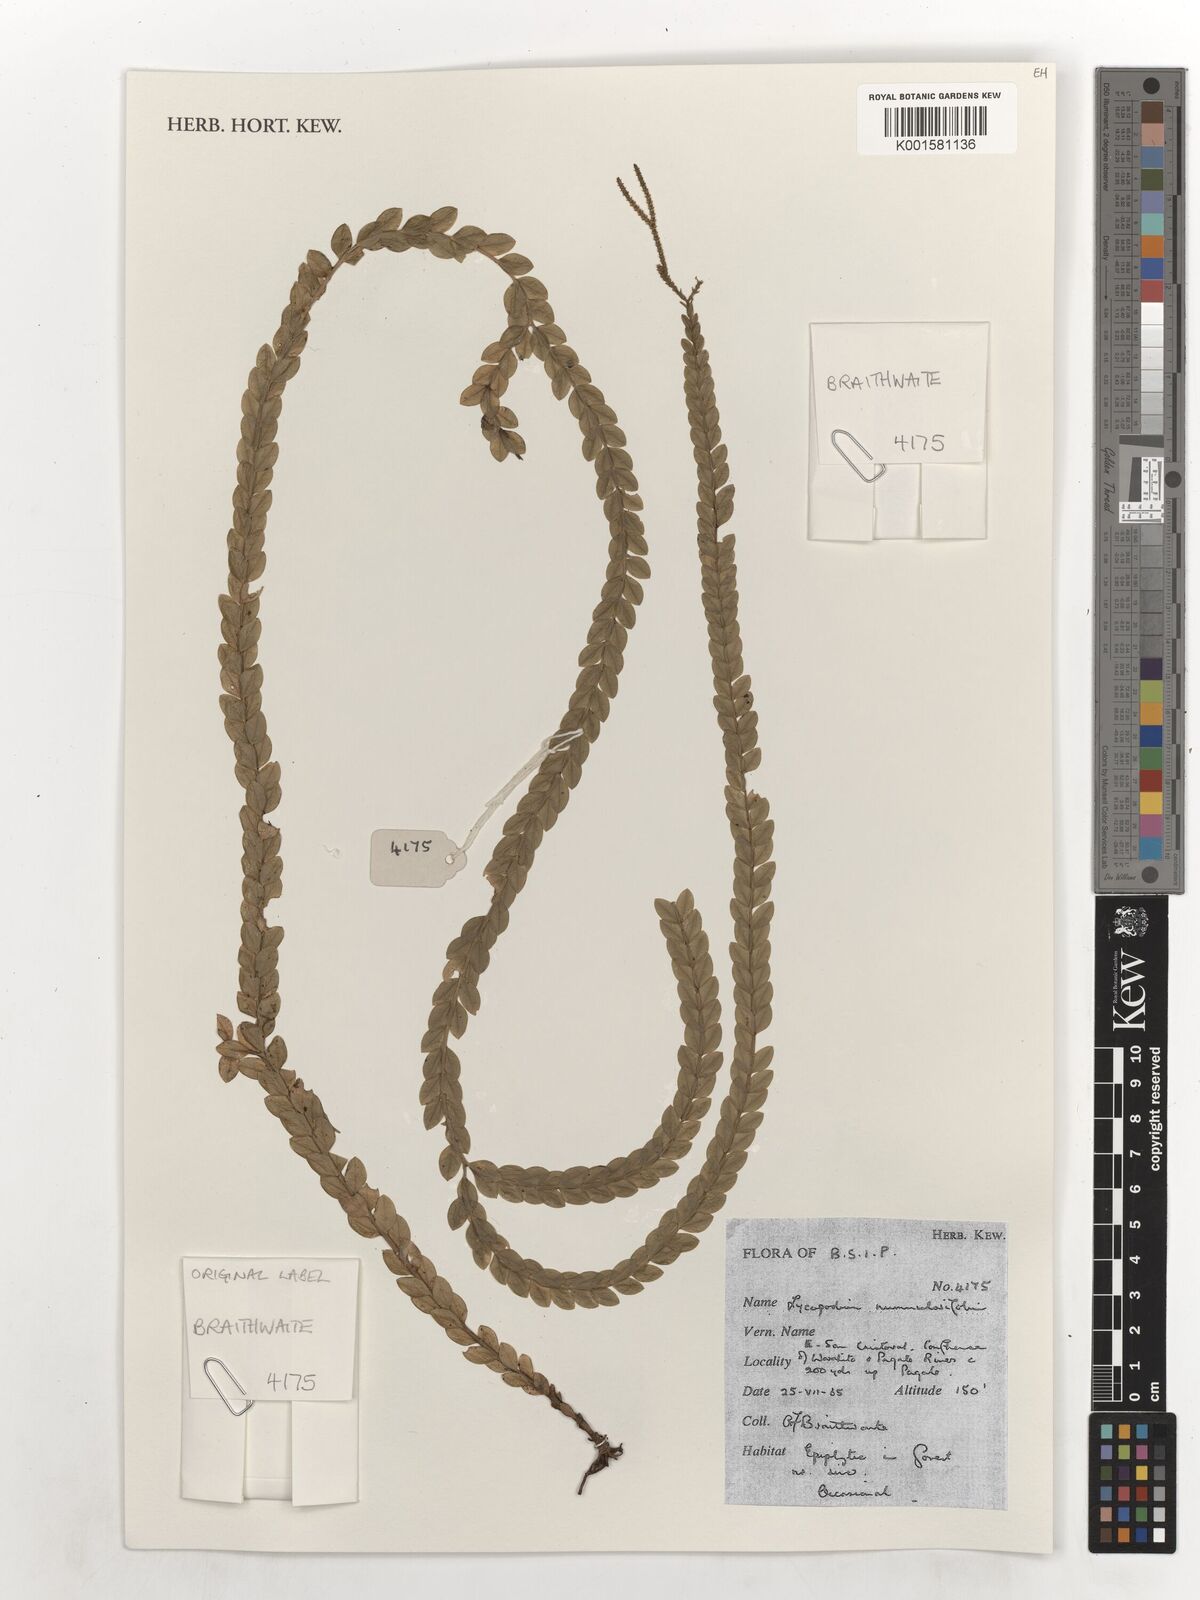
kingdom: Plantae
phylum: Tracheophyta
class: Lycopodiopsida
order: Lycopodiales
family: Lycopodiaceae
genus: Phlegmariurus
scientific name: Phlegmariurus nummulariifolius
